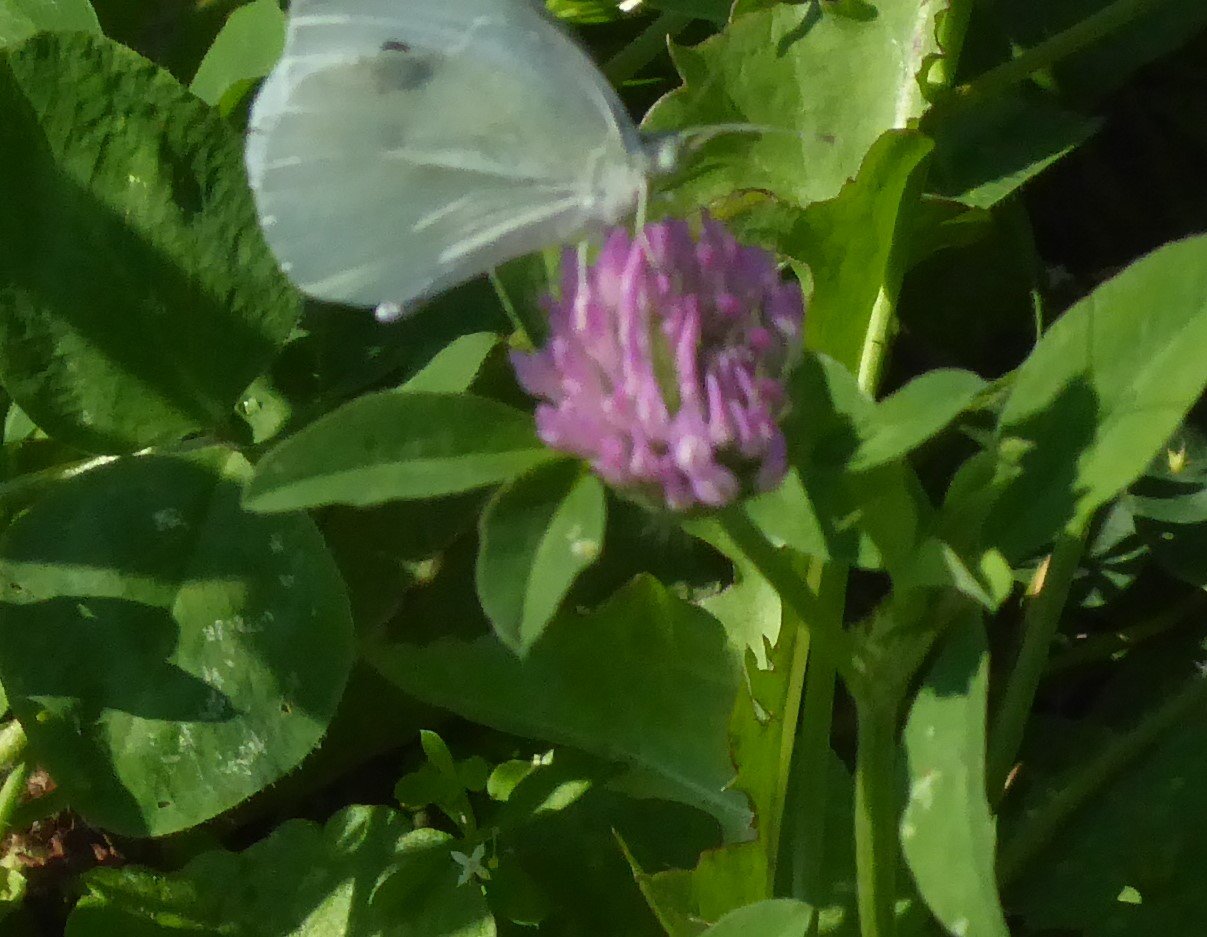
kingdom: Animalia
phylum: Arthropoda
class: Insecta
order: Lepidoptera
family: Pieridae
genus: Pieris
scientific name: Pieris rapae
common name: Cabbage White
